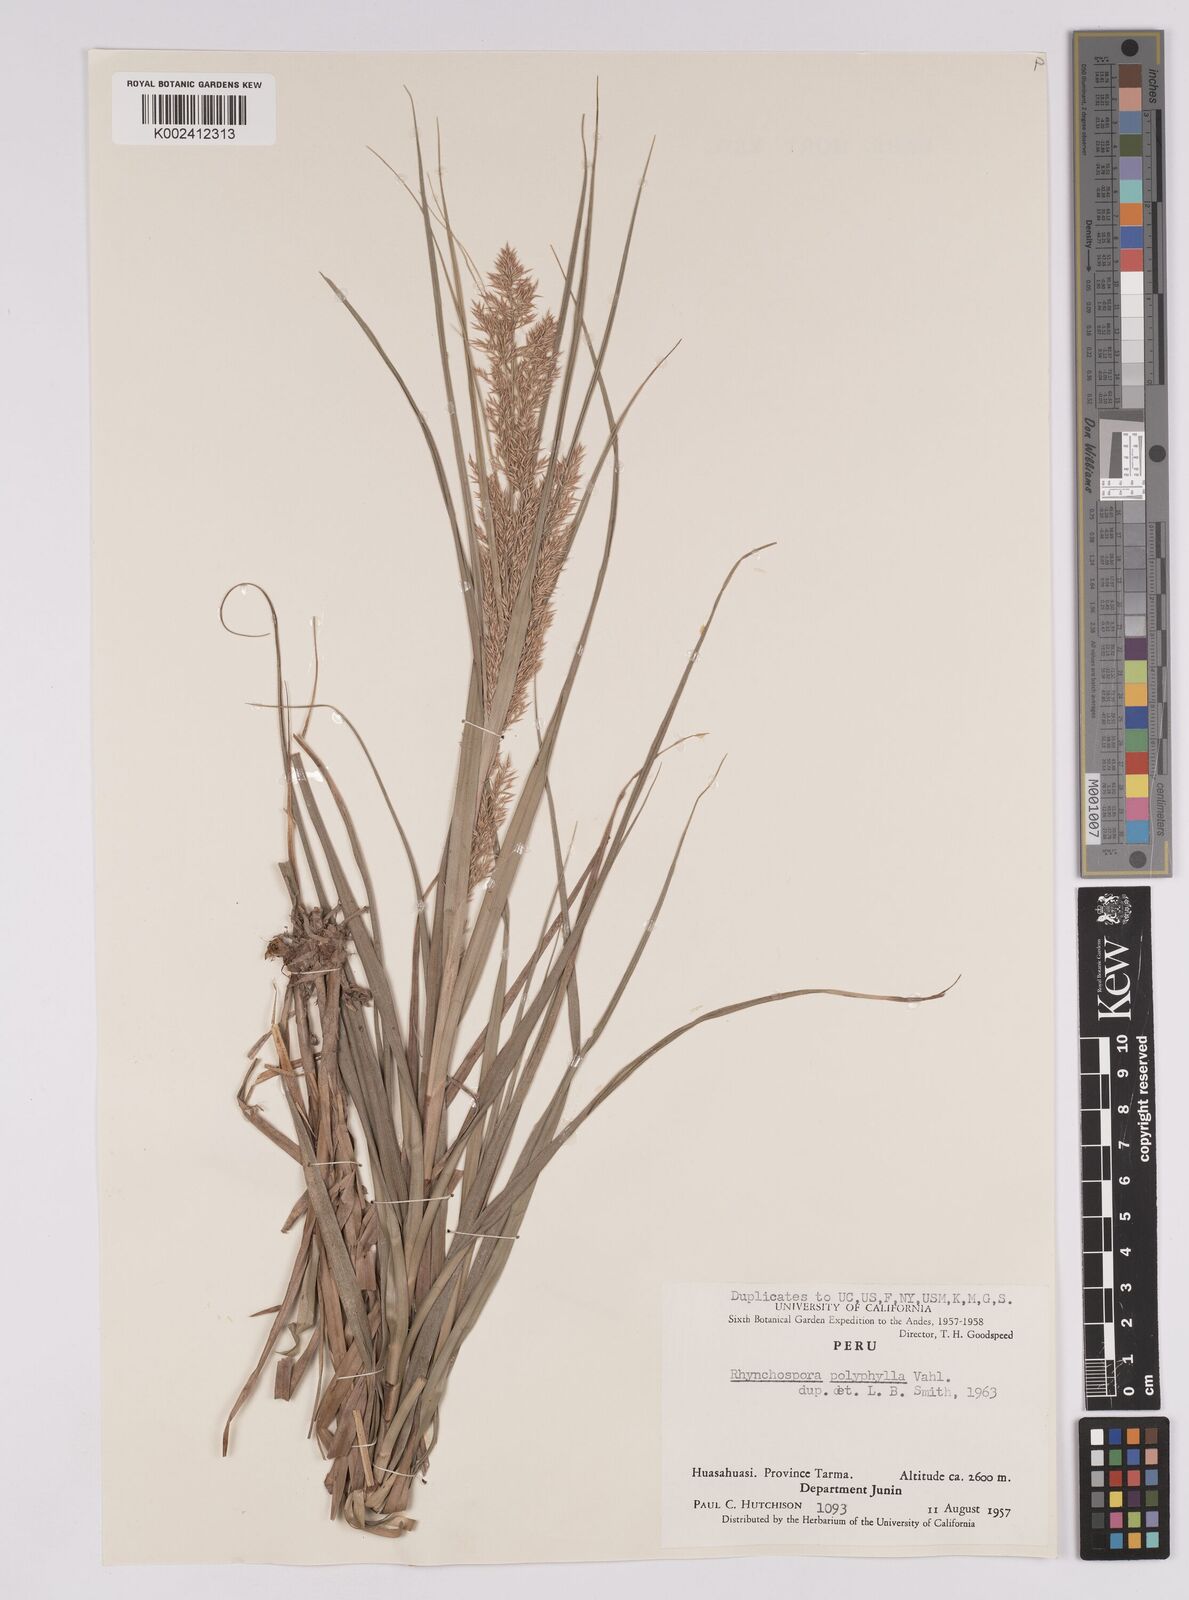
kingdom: Plantae
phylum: Tracheophyta
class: Liliopsida
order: Poales
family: Cyperaceae
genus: Rhynchospora
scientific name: Rhynchospora polyphylla
